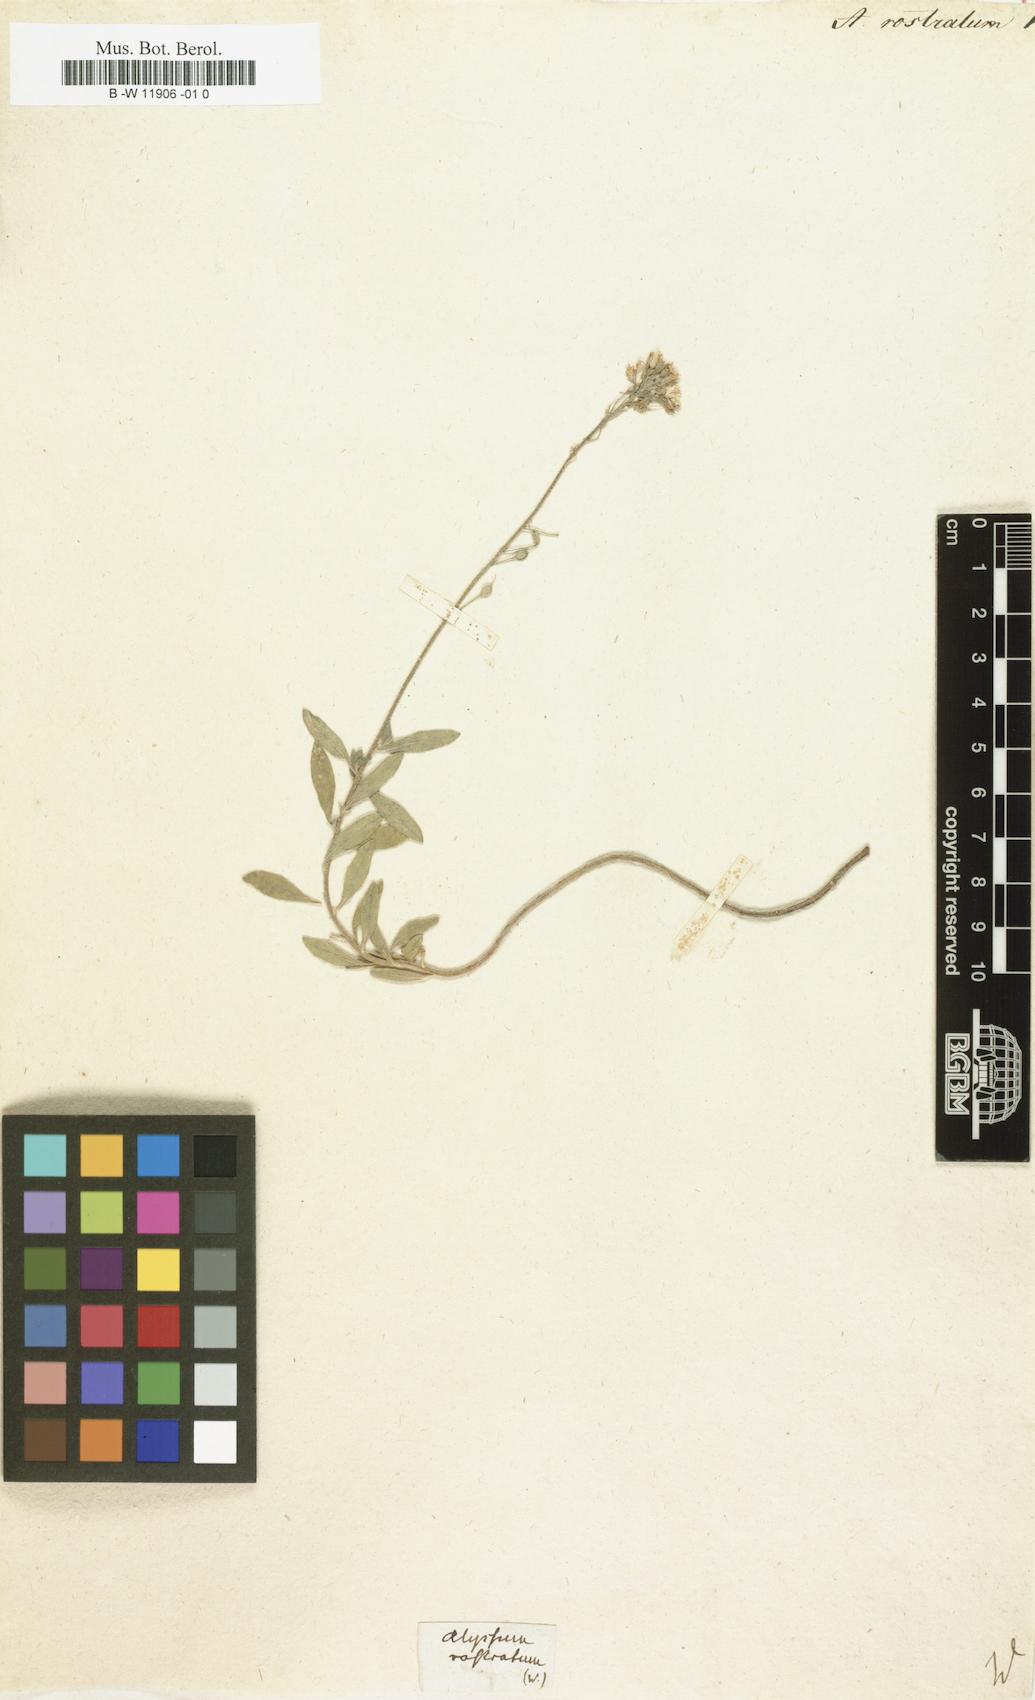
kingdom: Plantae
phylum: Tracheophyta
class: Magnoliopsida
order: Brassicales
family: Brassicaceae
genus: Alyssum
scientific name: Alyssum rostratum
